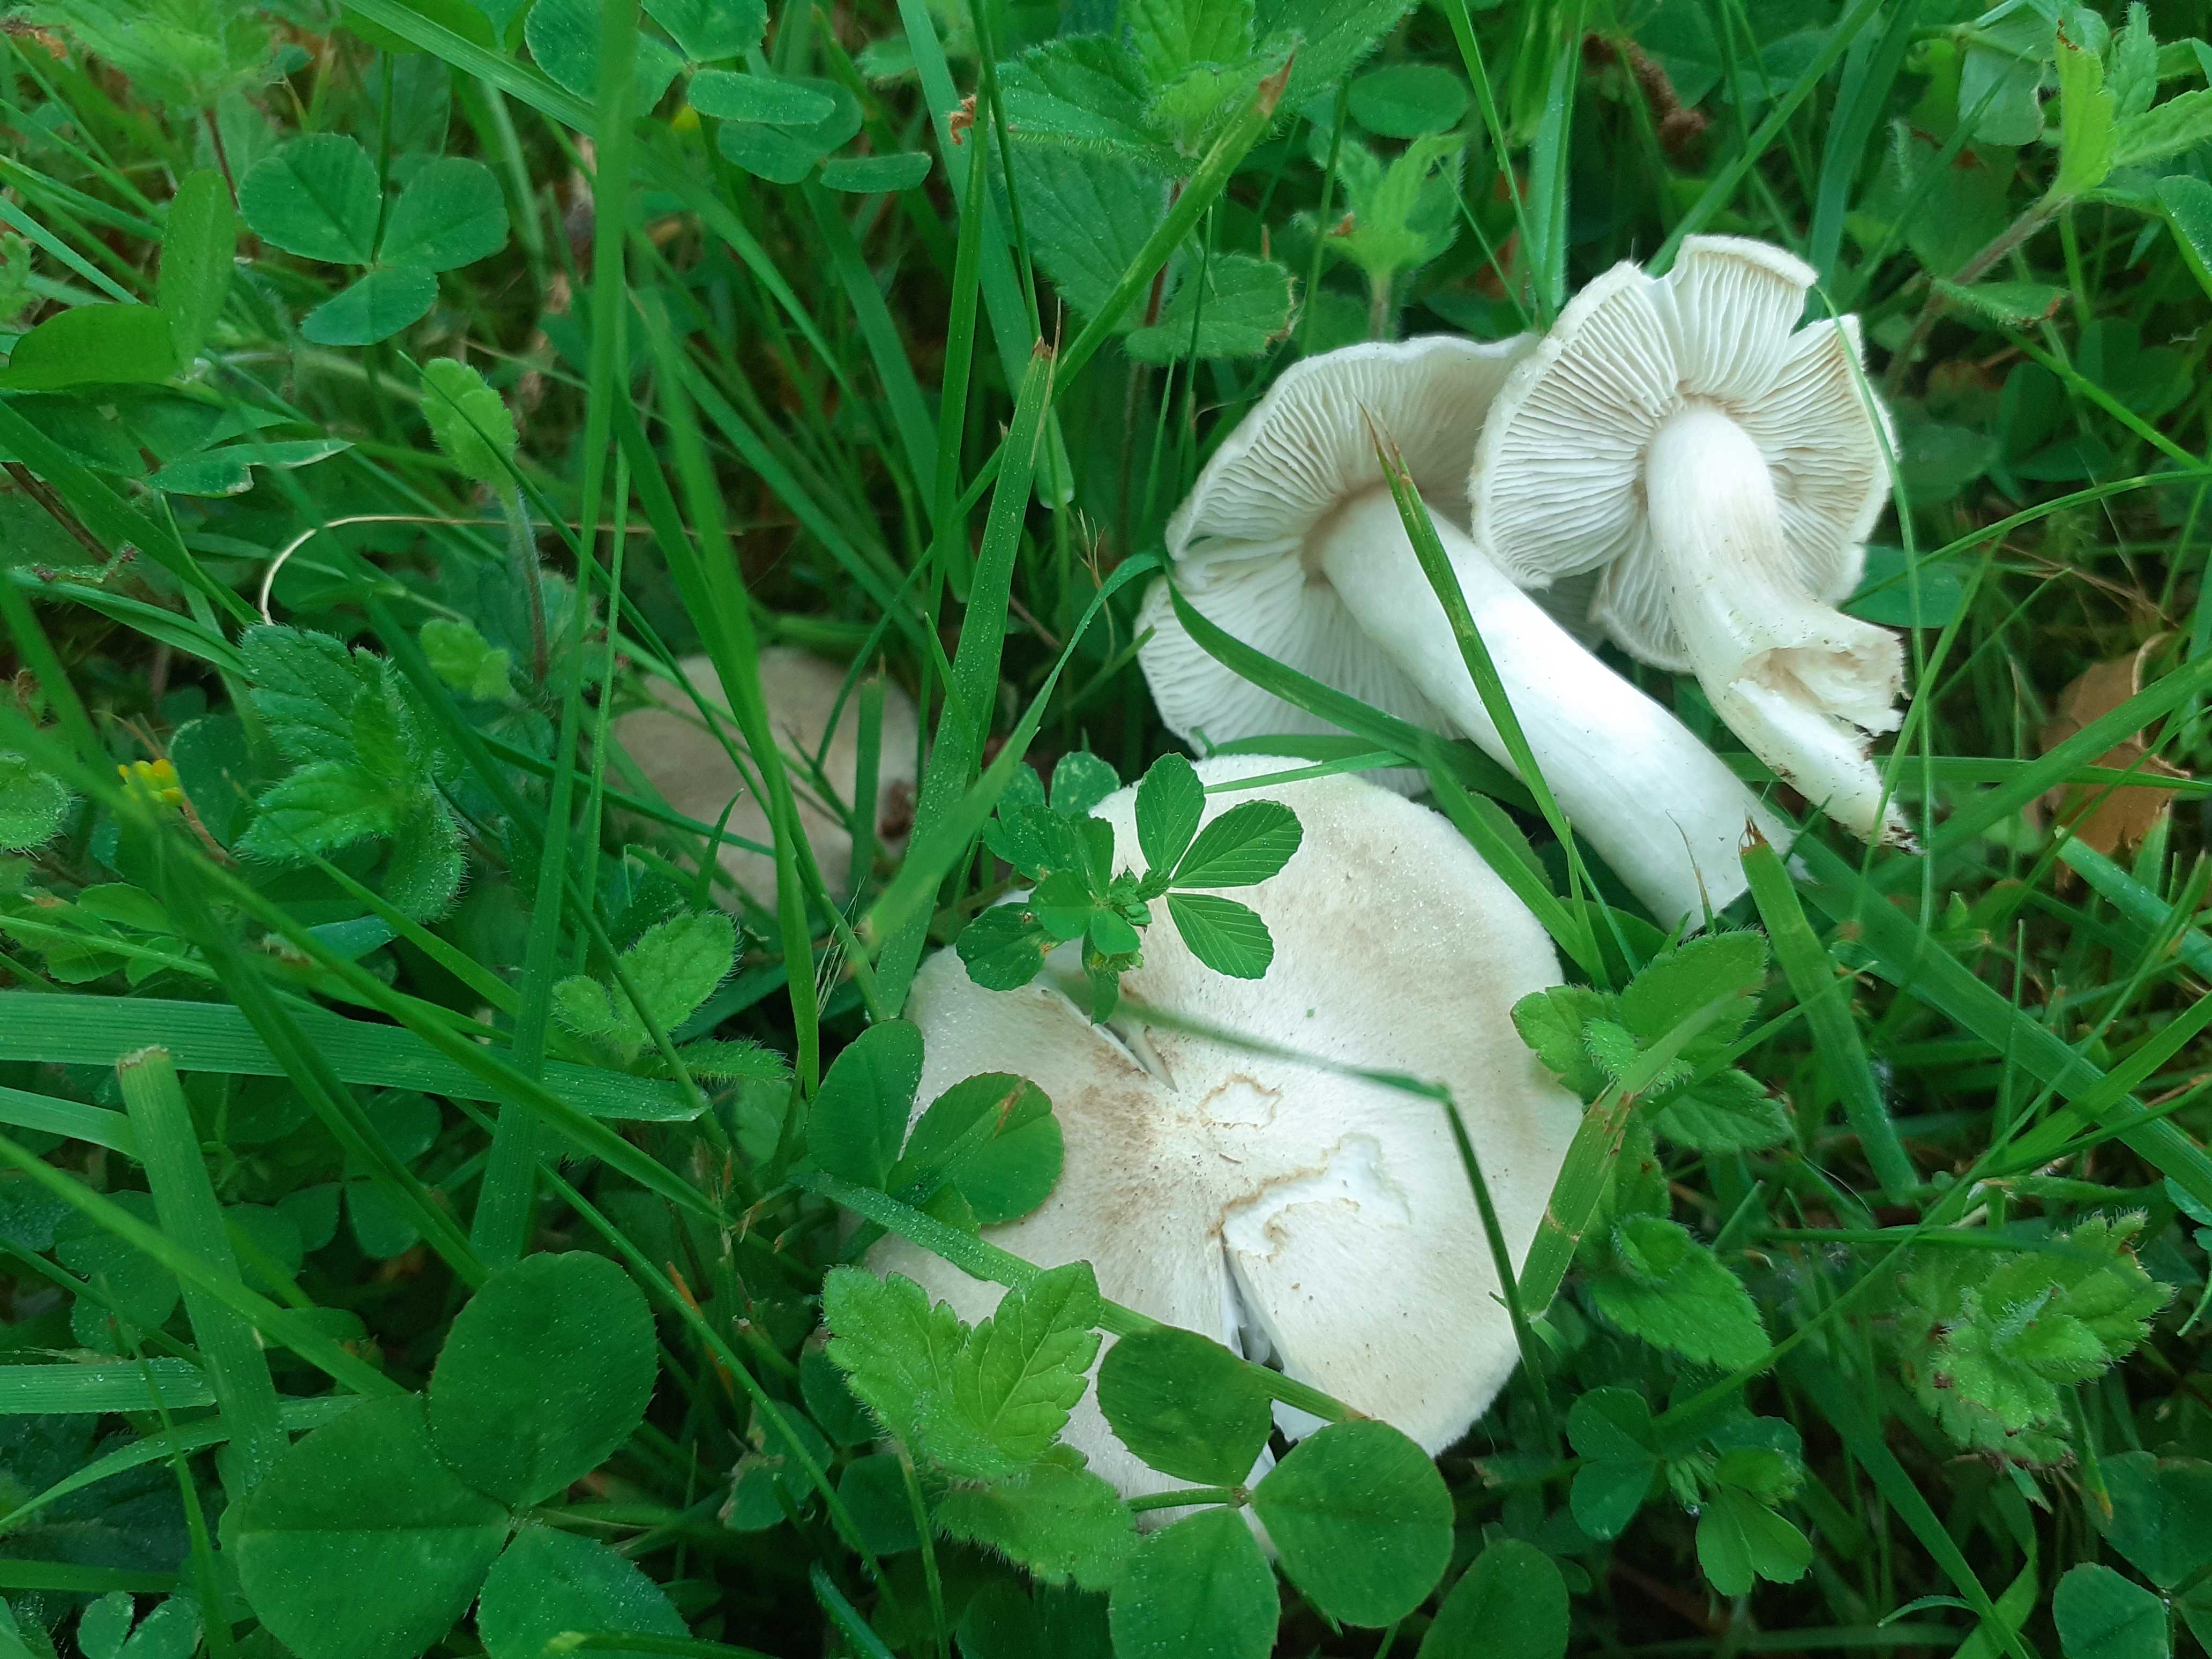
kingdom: Fungi
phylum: Basidiomycota
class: Agaricomycetes
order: Agaricales
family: Tricholomataceae
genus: Tricholoma
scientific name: Tricholoma argyraceum
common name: spids ridderhat
